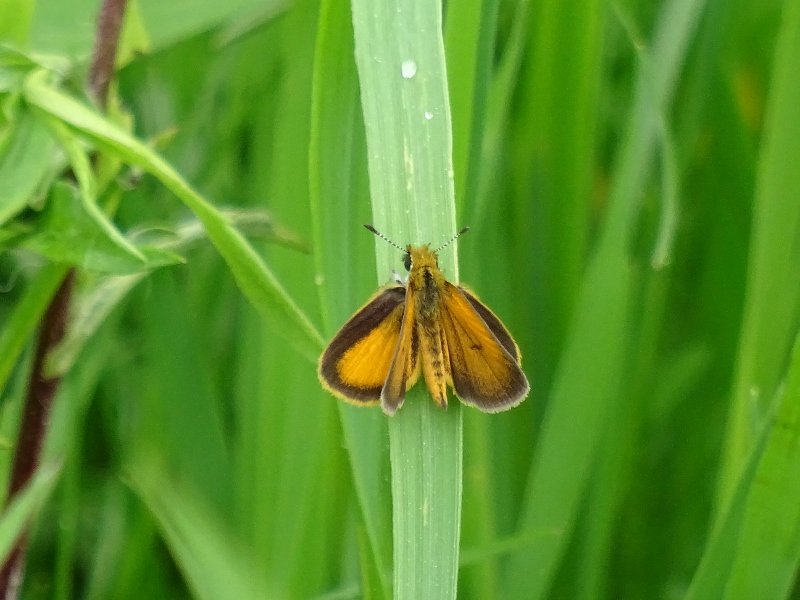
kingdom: Animalia
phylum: Arthropoda
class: Insecta
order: Lepidoptera
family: Hesperiidae
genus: Ancyloxypha
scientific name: Ancyloxypha numitor
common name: Least Skipper
